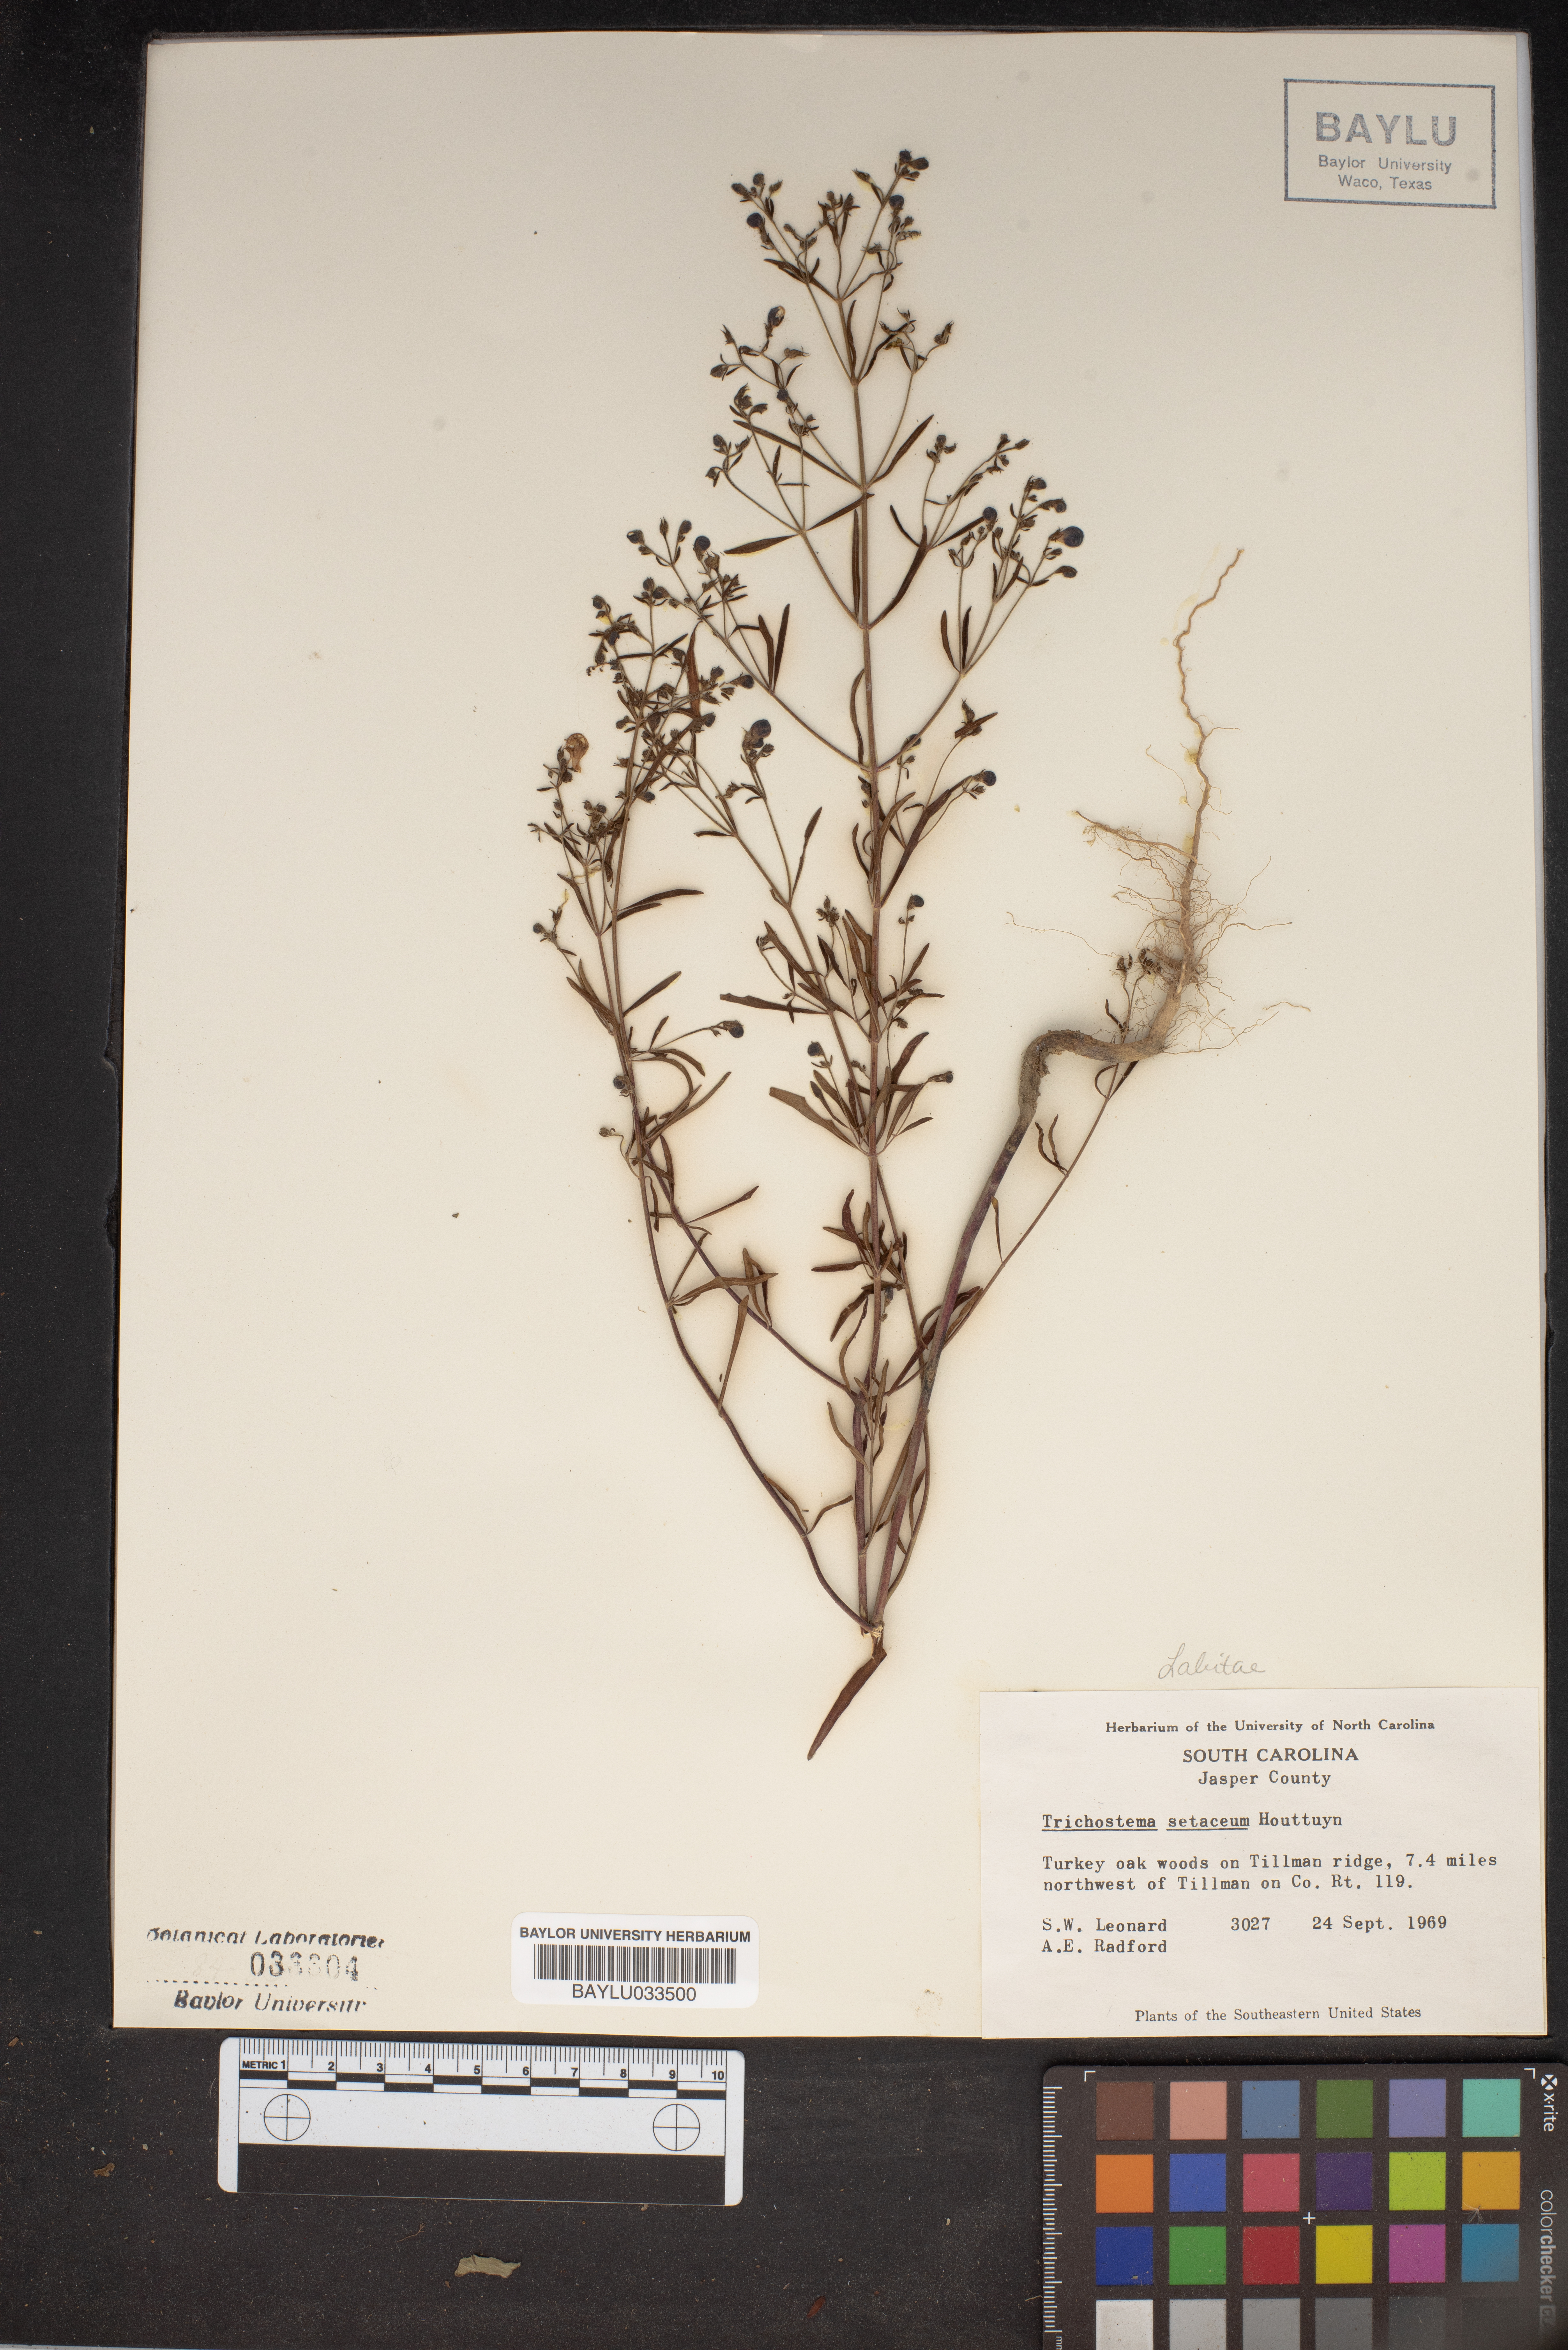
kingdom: Plantae
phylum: Tracheophyta
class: Magnoliopsida
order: Lamiales
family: Lamiaceae
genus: Trichostema
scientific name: Trichostema setaceum
